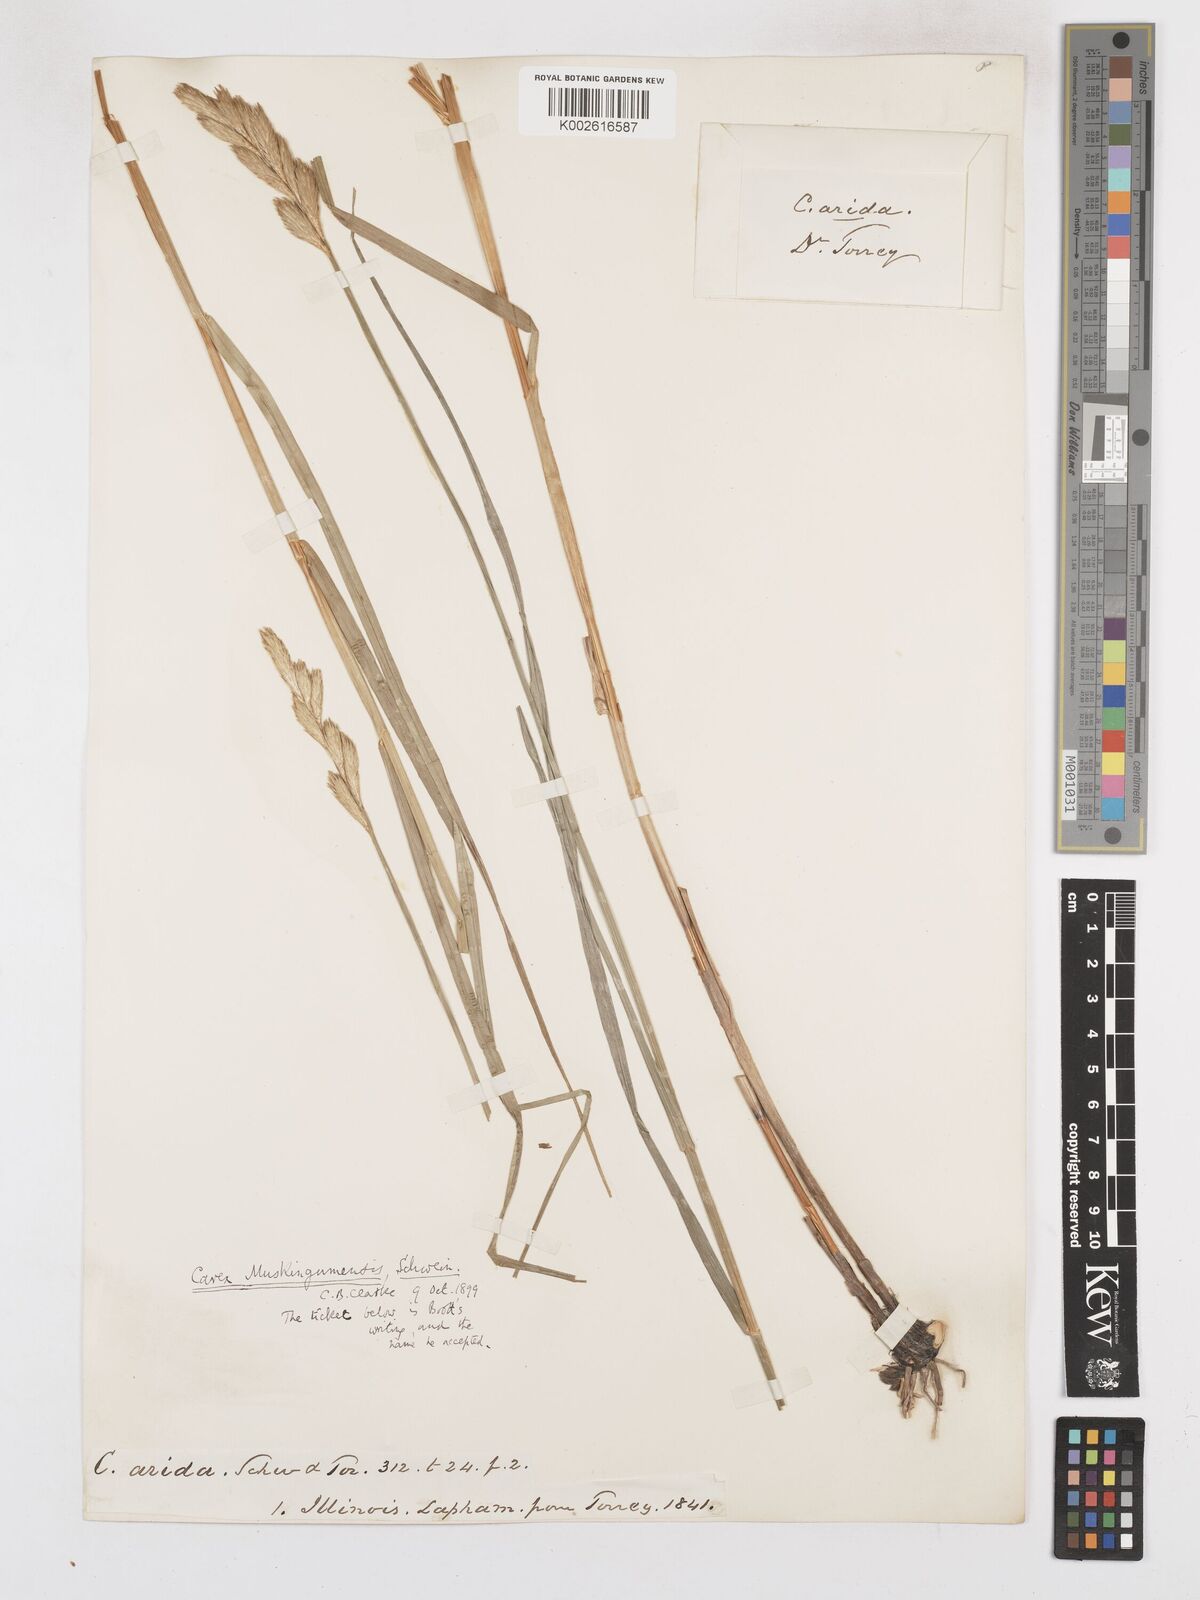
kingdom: Plantae
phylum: Tracheophyta
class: Liliopsida
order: Poales
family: Cyperaceae
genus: Carex
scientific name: Carex muskingumensis
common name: Muskingum sedge
